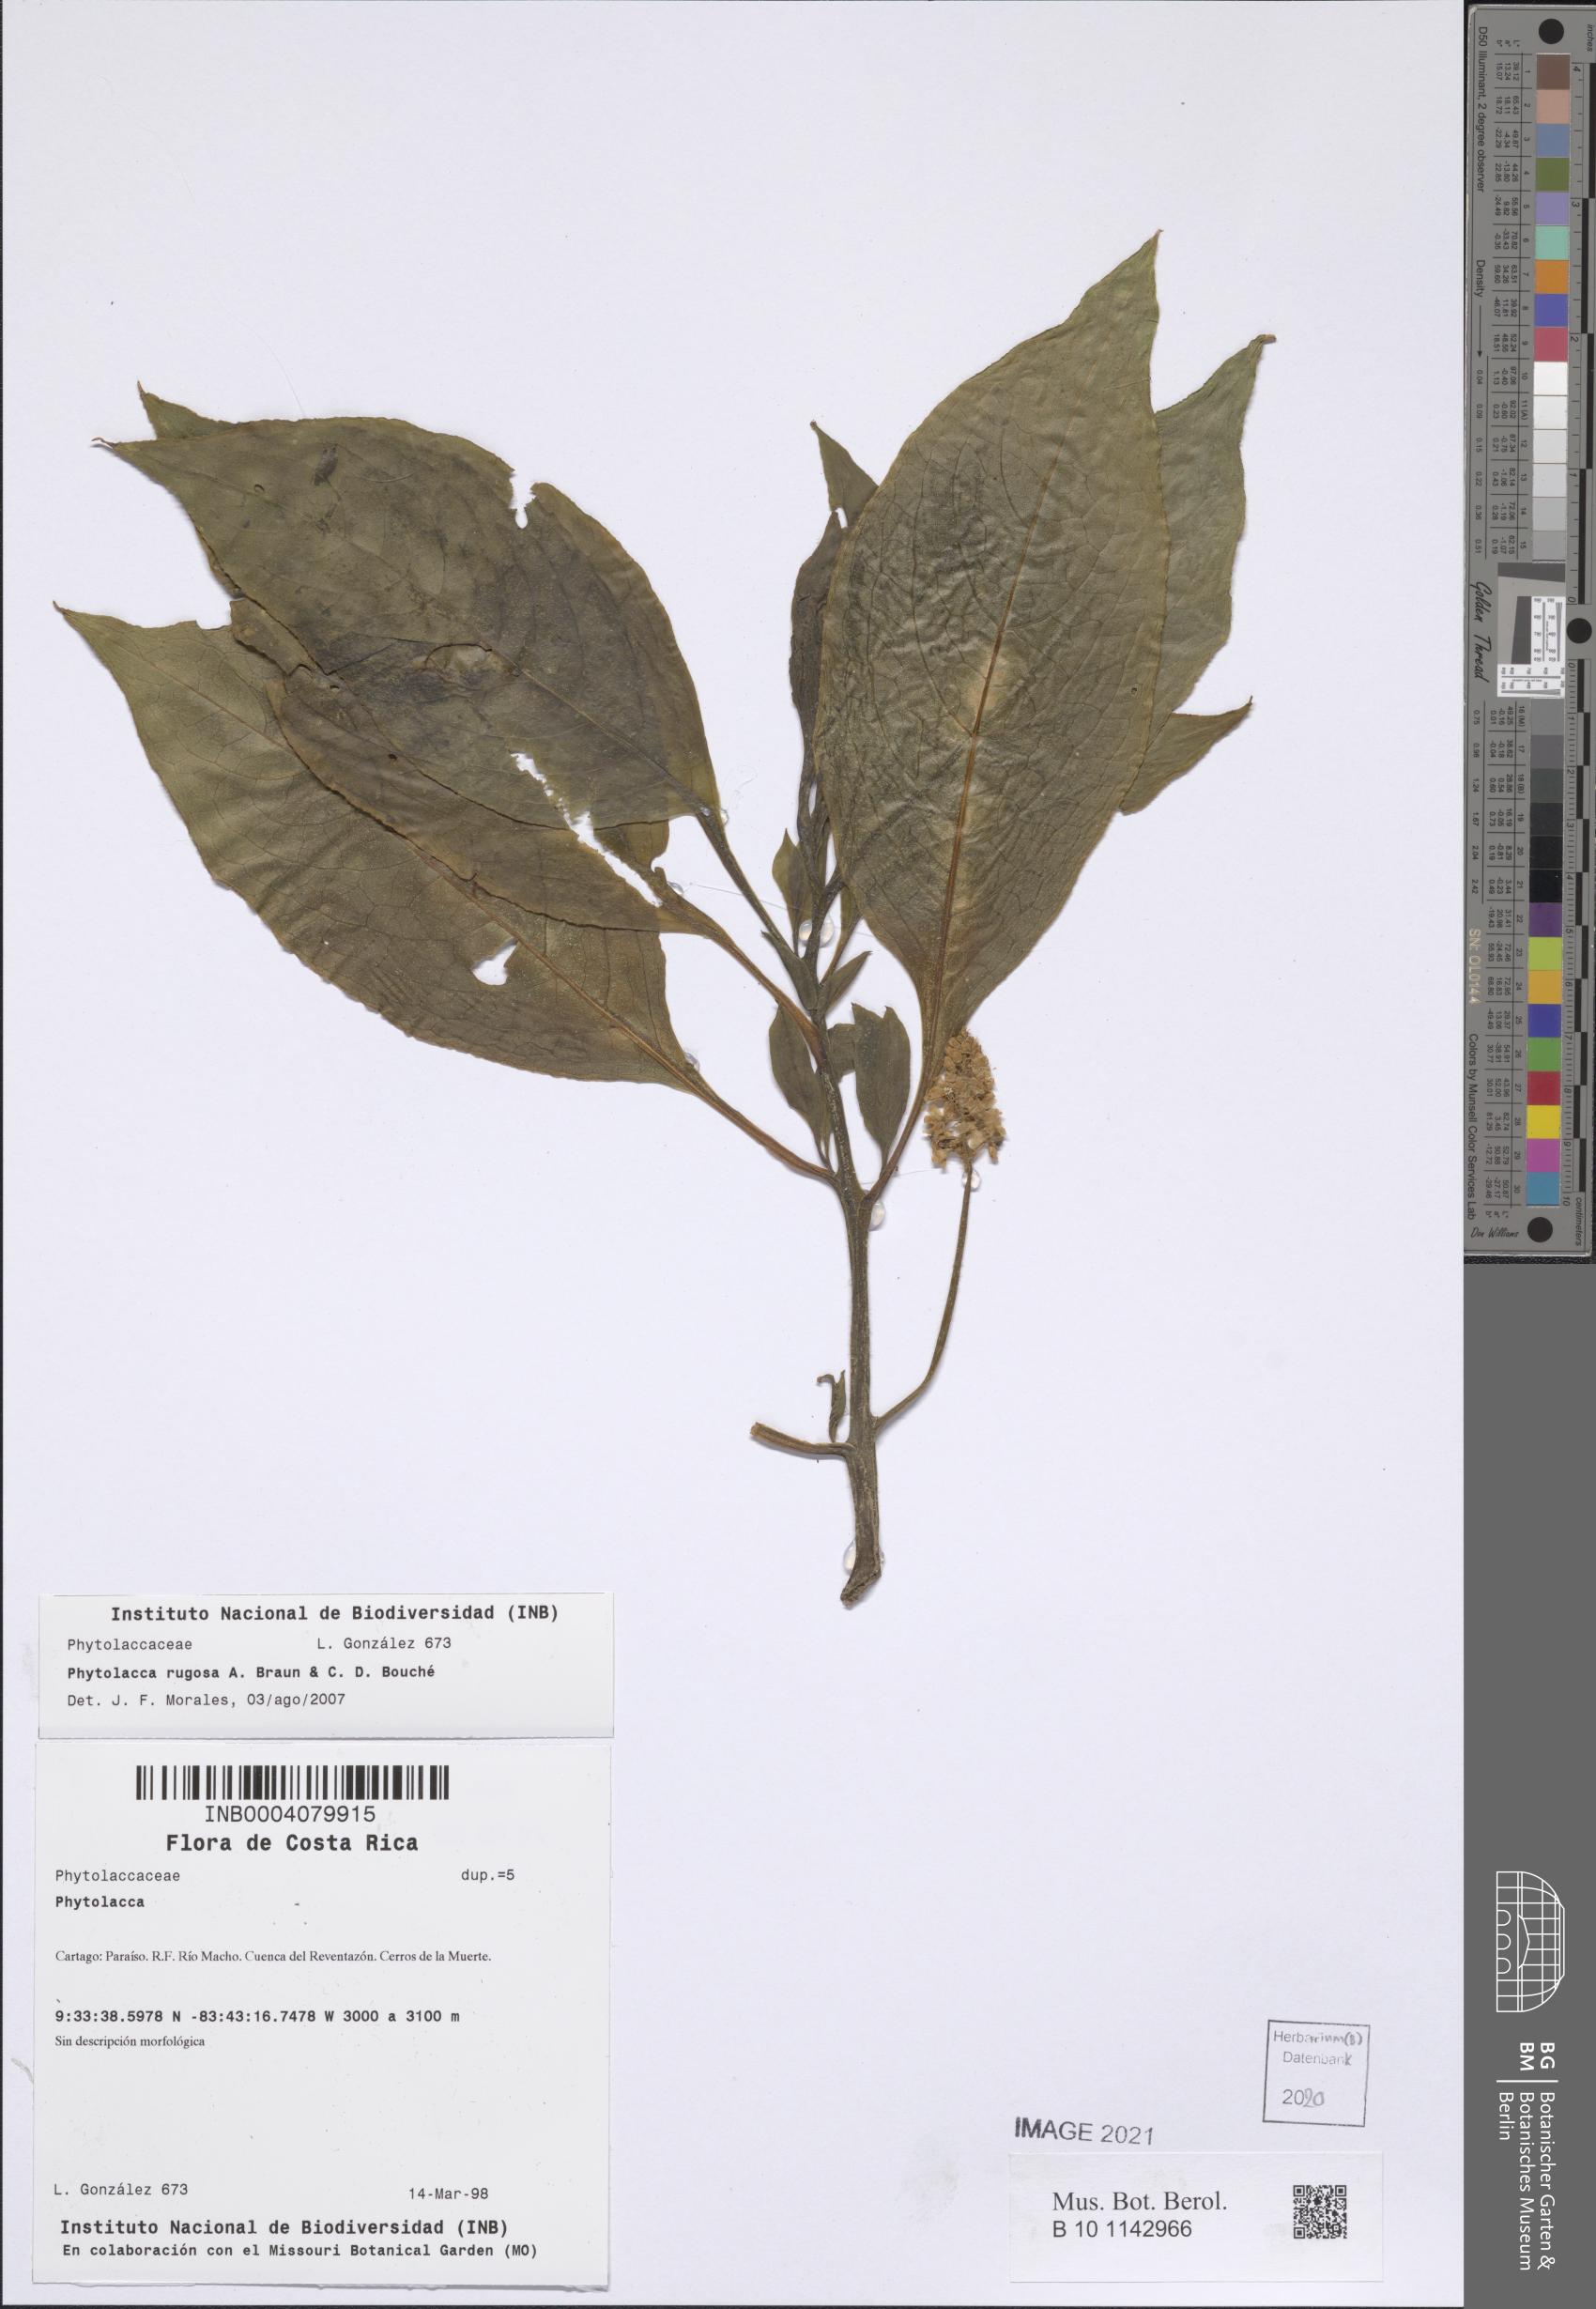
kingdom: Plantae
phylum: Tracheophyta
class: Magnoliopsida
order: Caryophyllales
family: Phytolaccaceae
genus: Phytolacca
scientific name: Phytolacca rugosa
